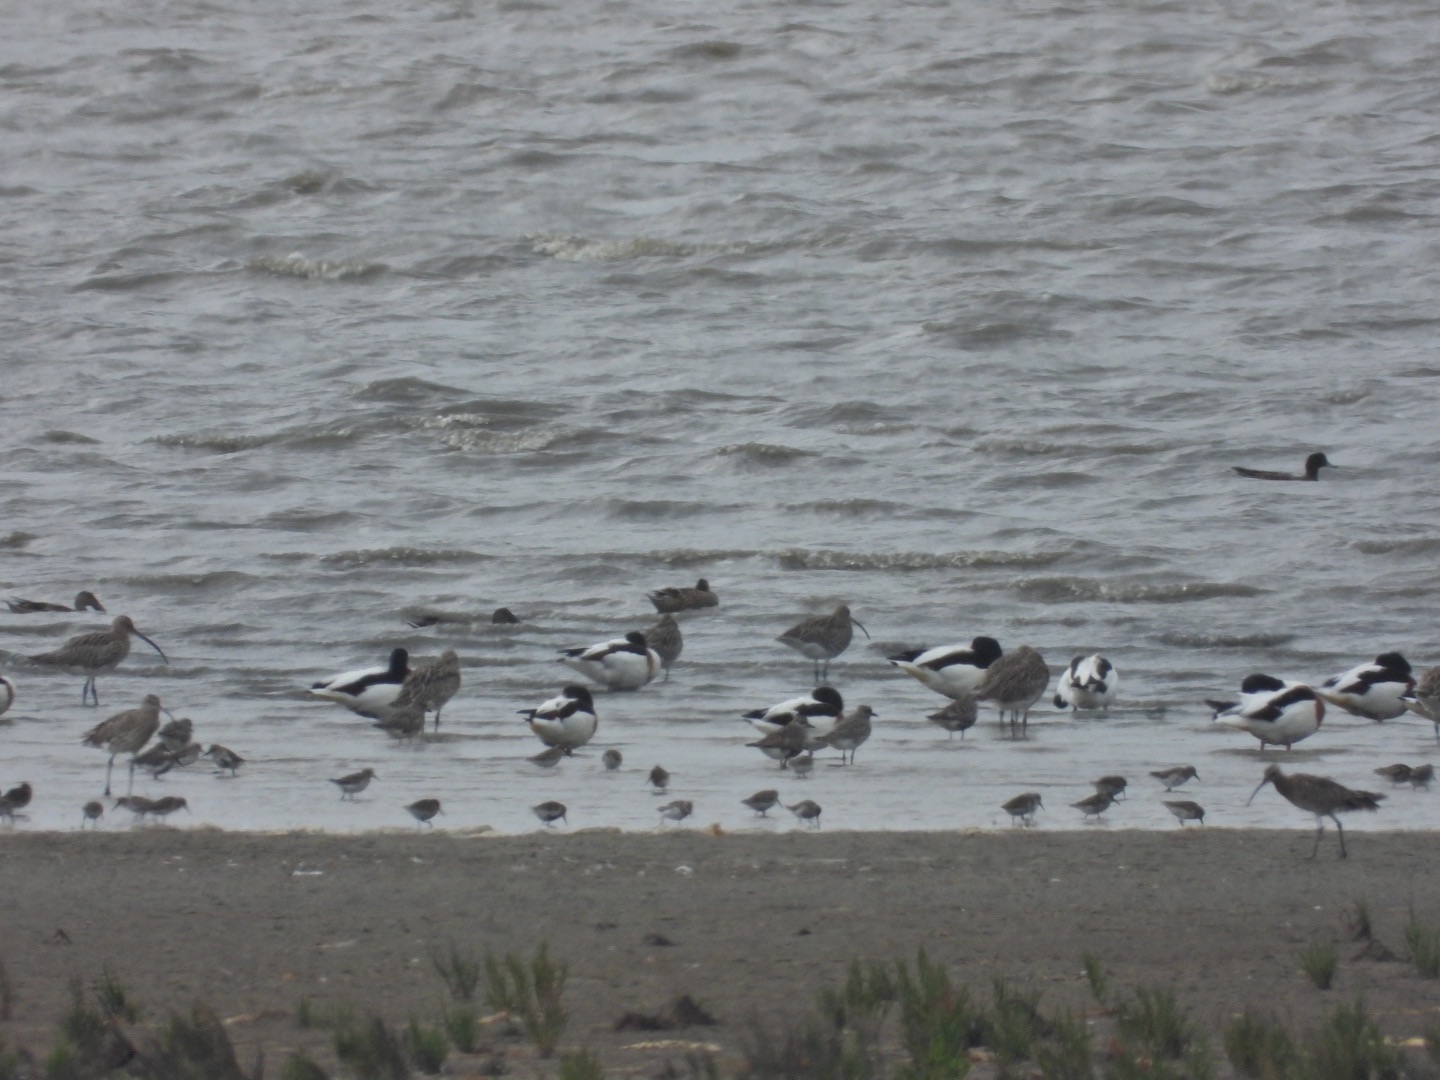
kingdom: Animalia
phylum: Chordata
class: Aves
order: Anseriformes
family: Anatidae
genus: Tadorna
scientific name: Tadorna tadorna
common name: Gravand
